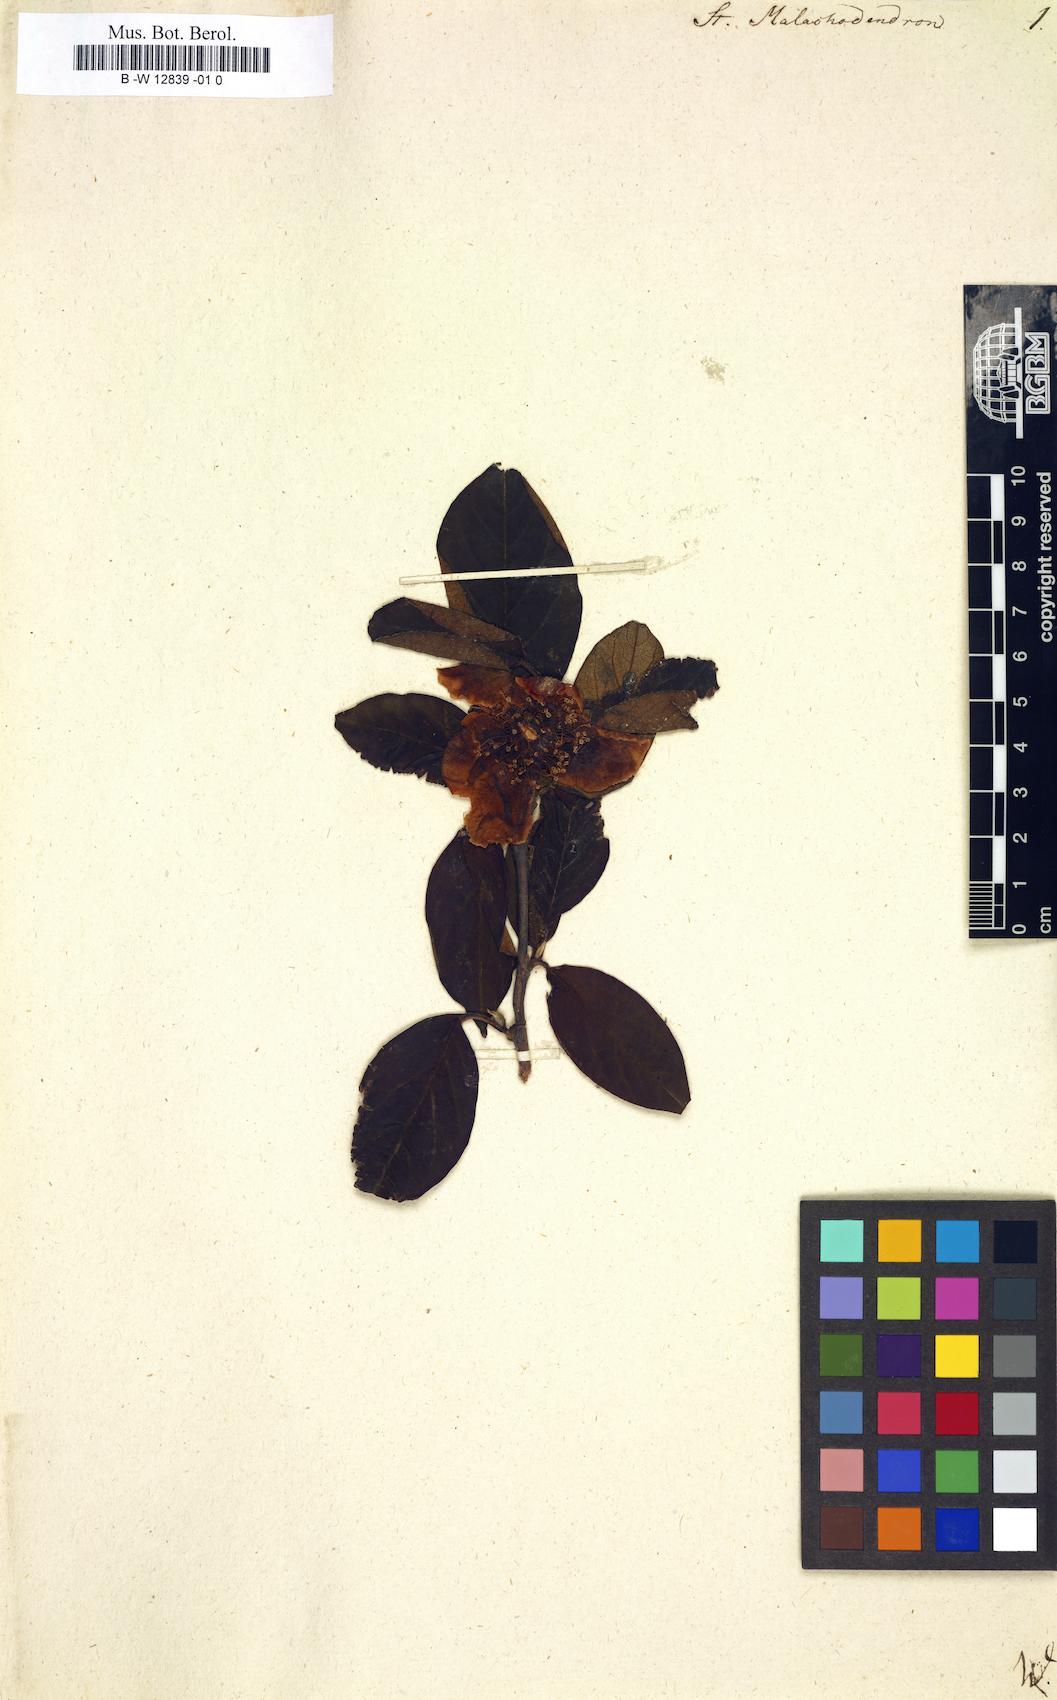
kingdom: Plantae
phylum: Tracheophyta
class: Magnoliopsida
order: Ericales
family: Theaceae
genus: Stuartia
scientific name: Stuartia
